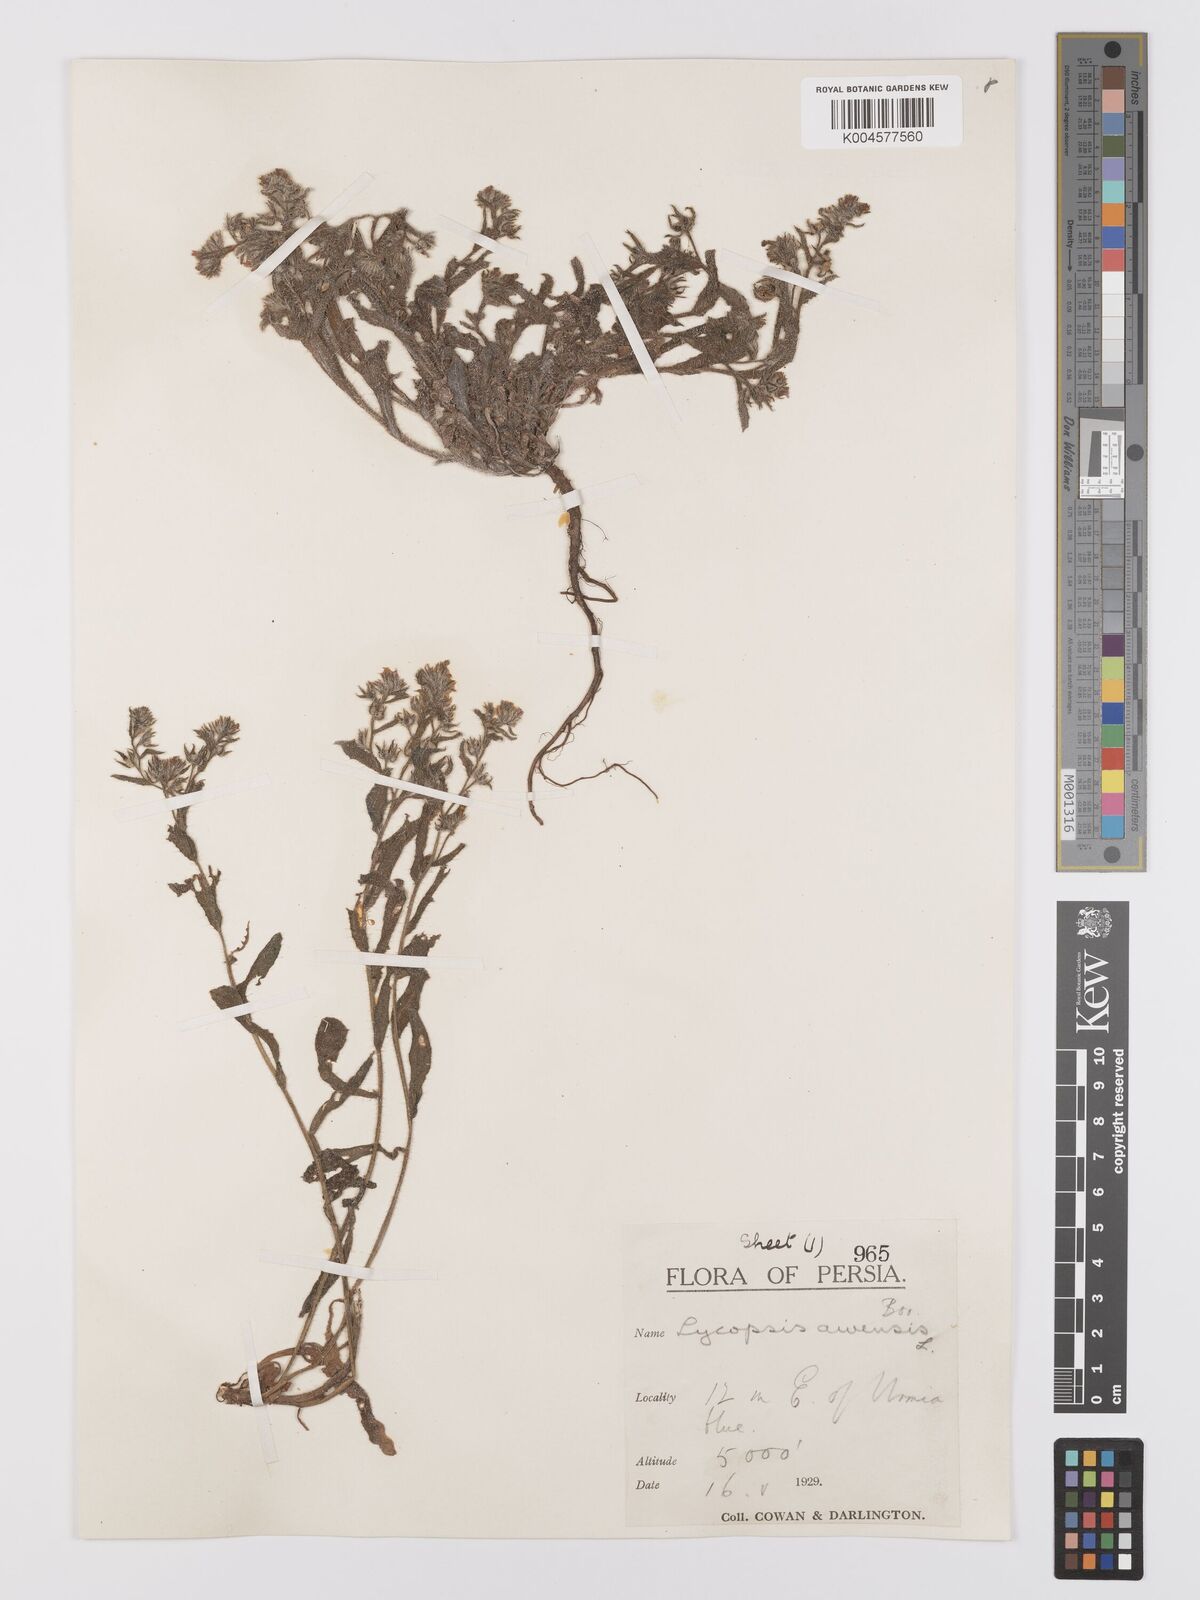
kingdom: Plantae
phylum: Tracheophyta
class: Magnoliopsida
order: Boraginales
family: Boraginaceae
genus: Lycopsis
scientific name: Lycopsis arvensis
